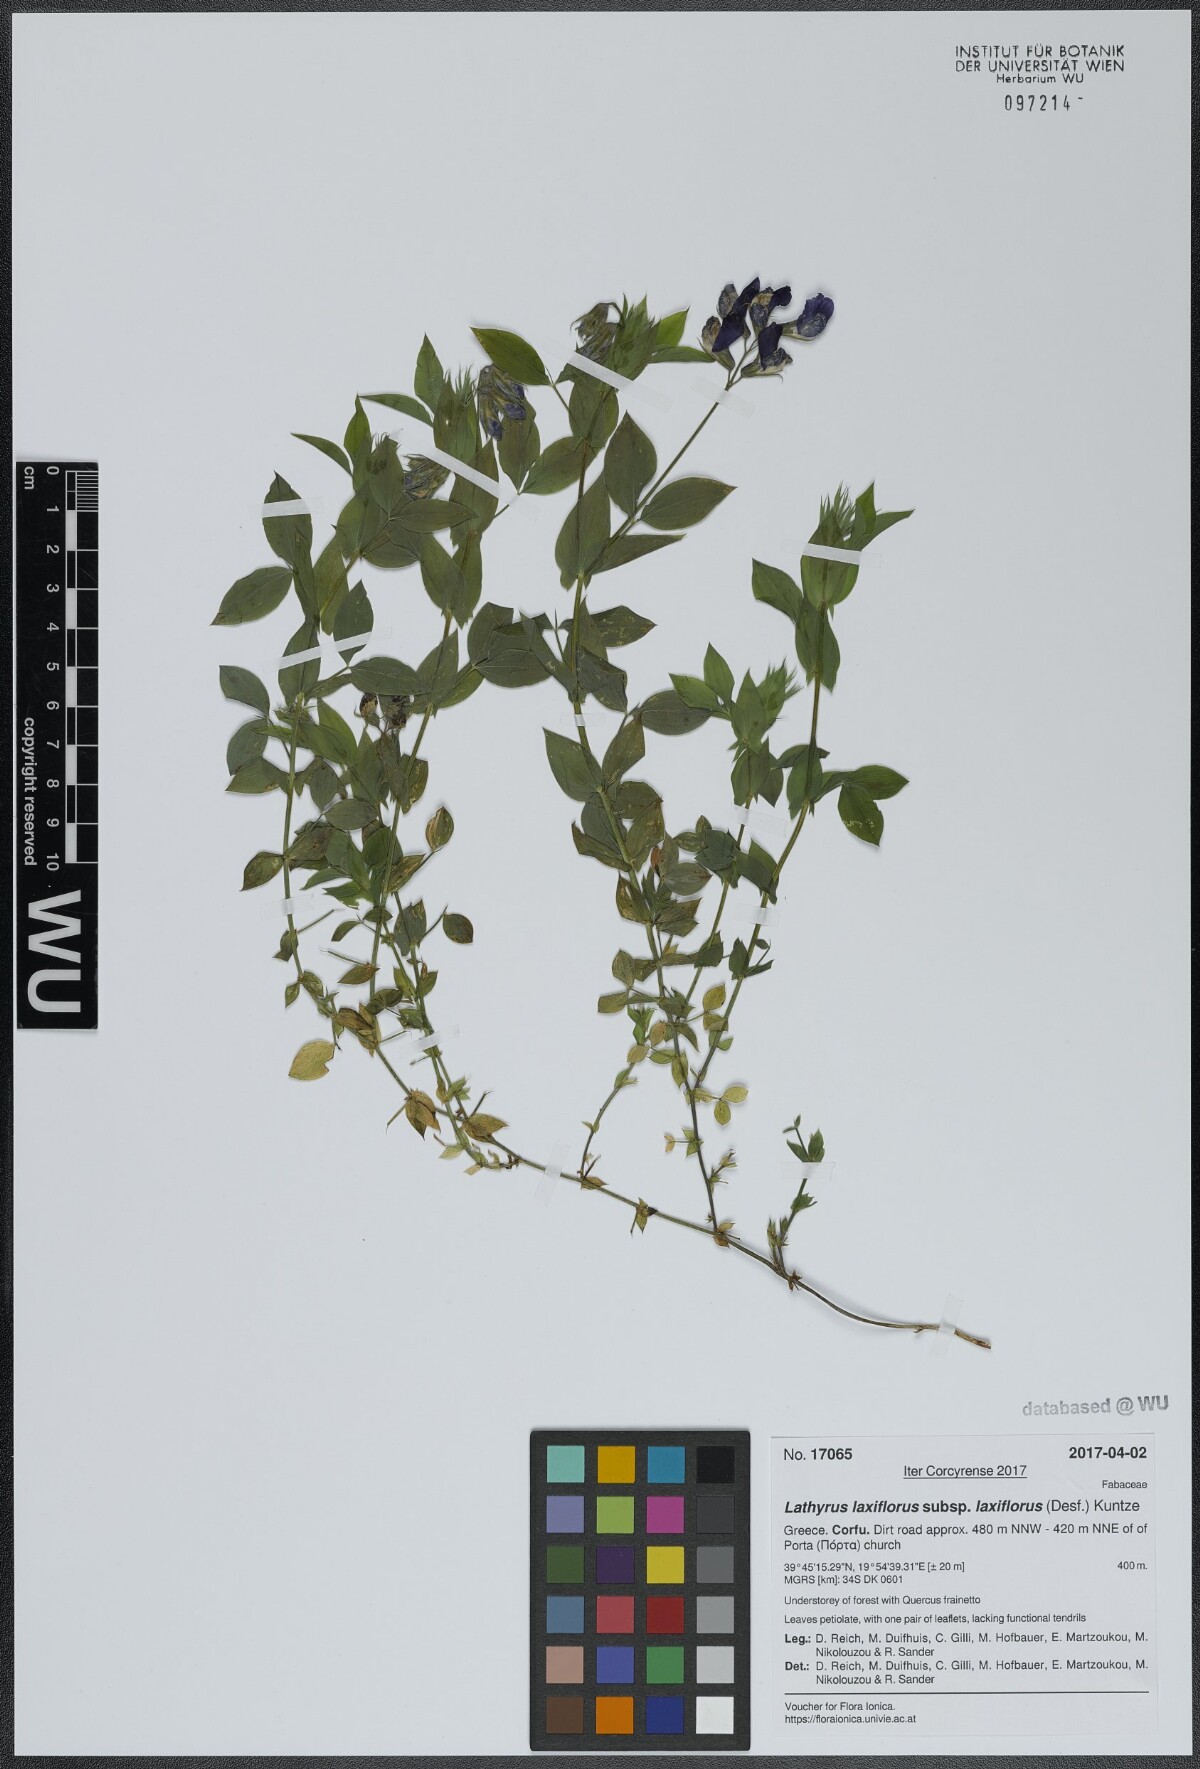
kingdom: Plantae
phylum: Tracheophyta
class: Magnoliopsida
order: Fabales
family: Fabaceae
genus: Lathyrus
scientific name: Lathyrus laxiflorus
